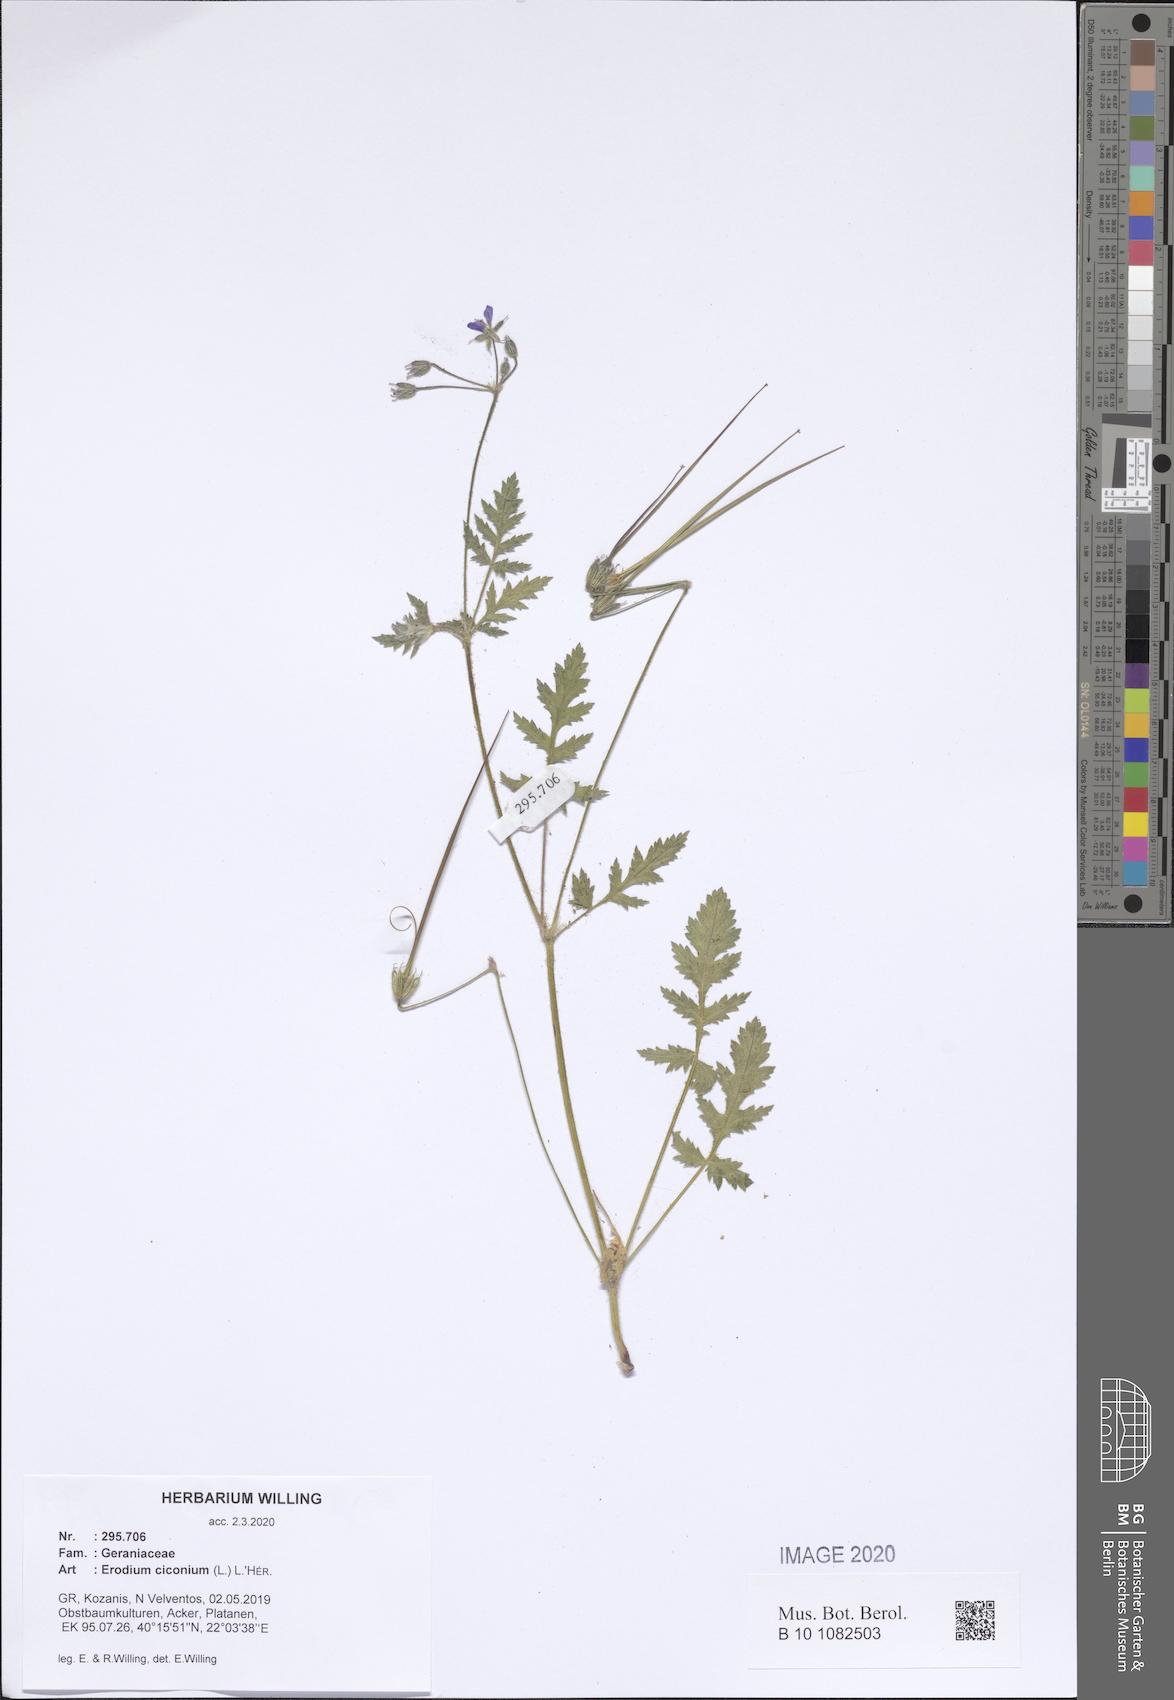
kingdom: Plantae
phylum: Tracheophyta
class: Magnoliopsida
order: Geraniales
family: Geraniaceae
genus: Erodium
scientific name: Erodium ciconium
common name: Common stork's bill
